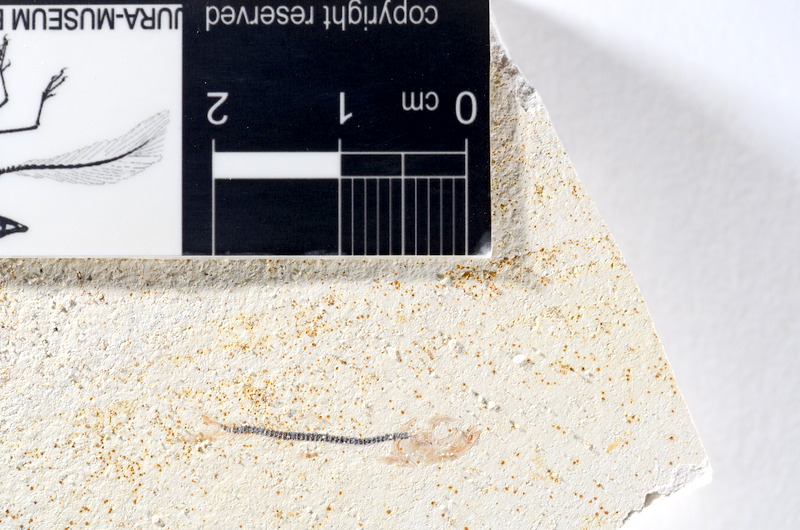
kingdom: Animalia
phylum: Chordata
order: Salmoniformes
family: Orthogonikleithridae
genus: Orthogonikleithrus
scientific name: Orthogonikleithrus hoelli
